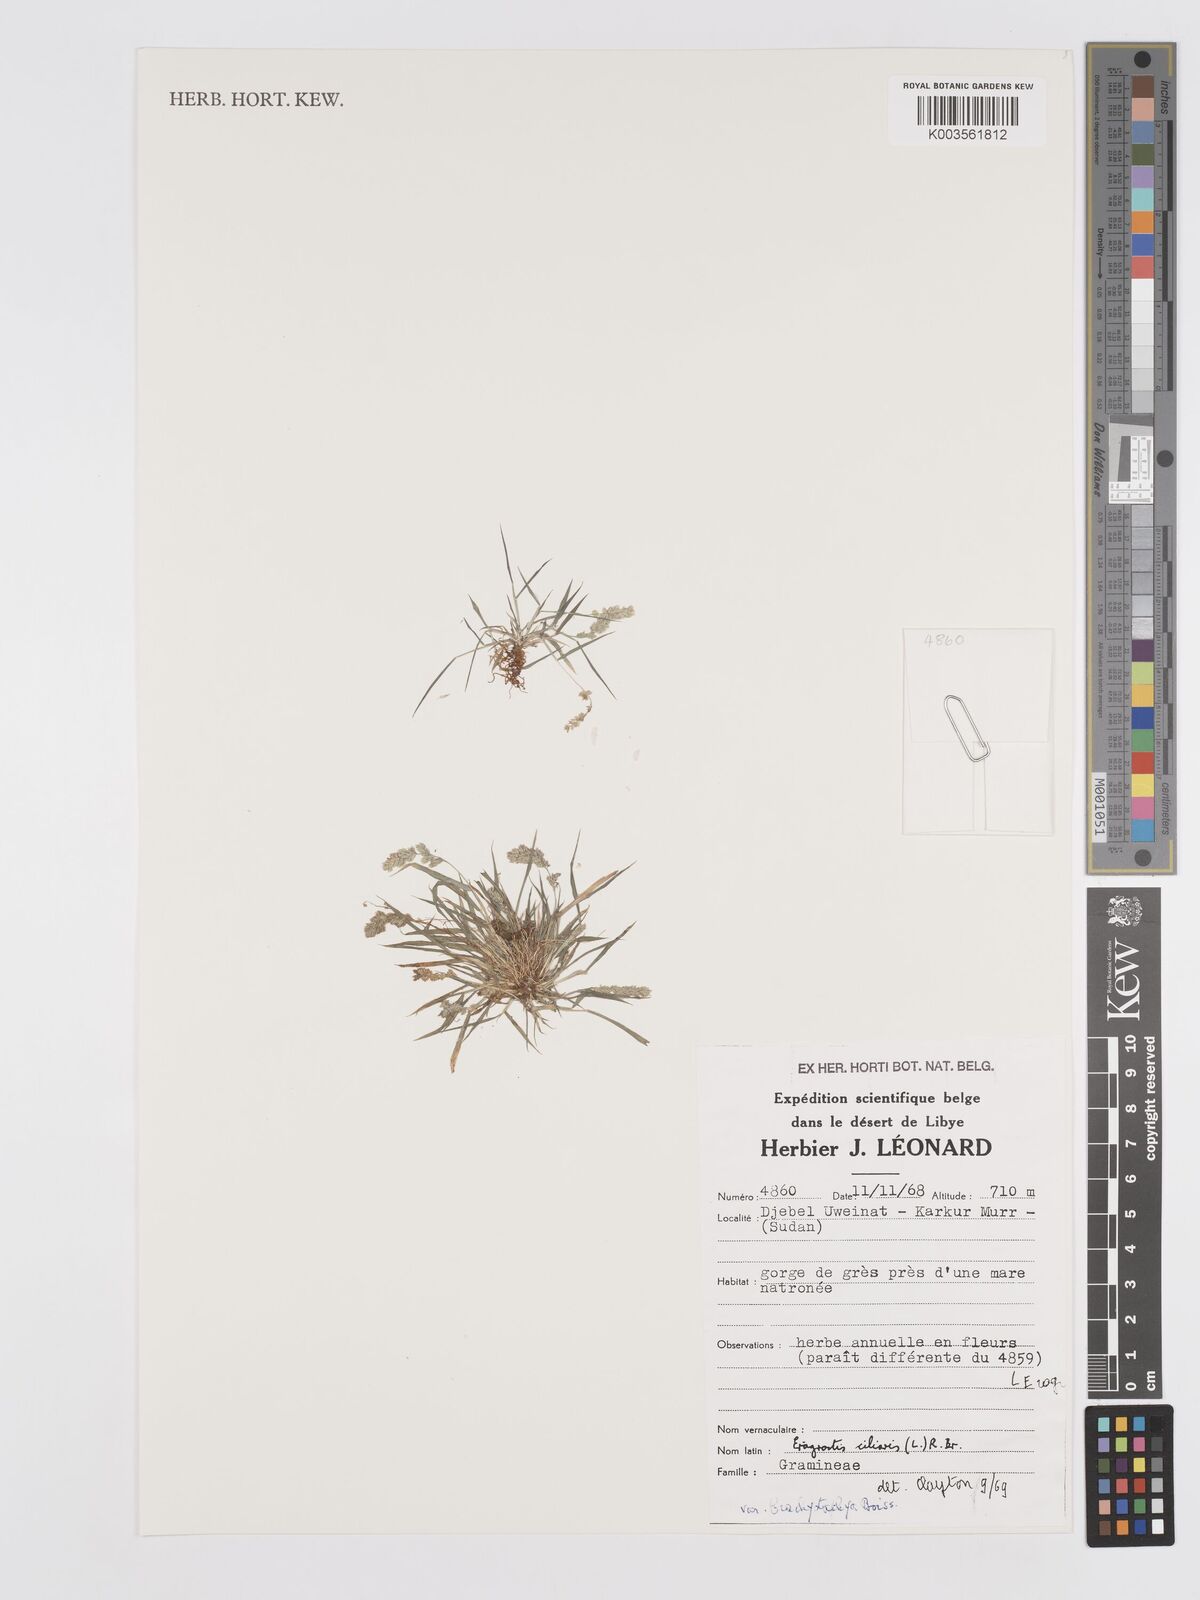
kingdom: Plantae
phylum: Tracheophyta
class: Liliopsida
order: Poales
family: Poaceae
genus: Eragrostis
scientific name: Eragrostis ciliaris
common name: Gophertail lovegrass
